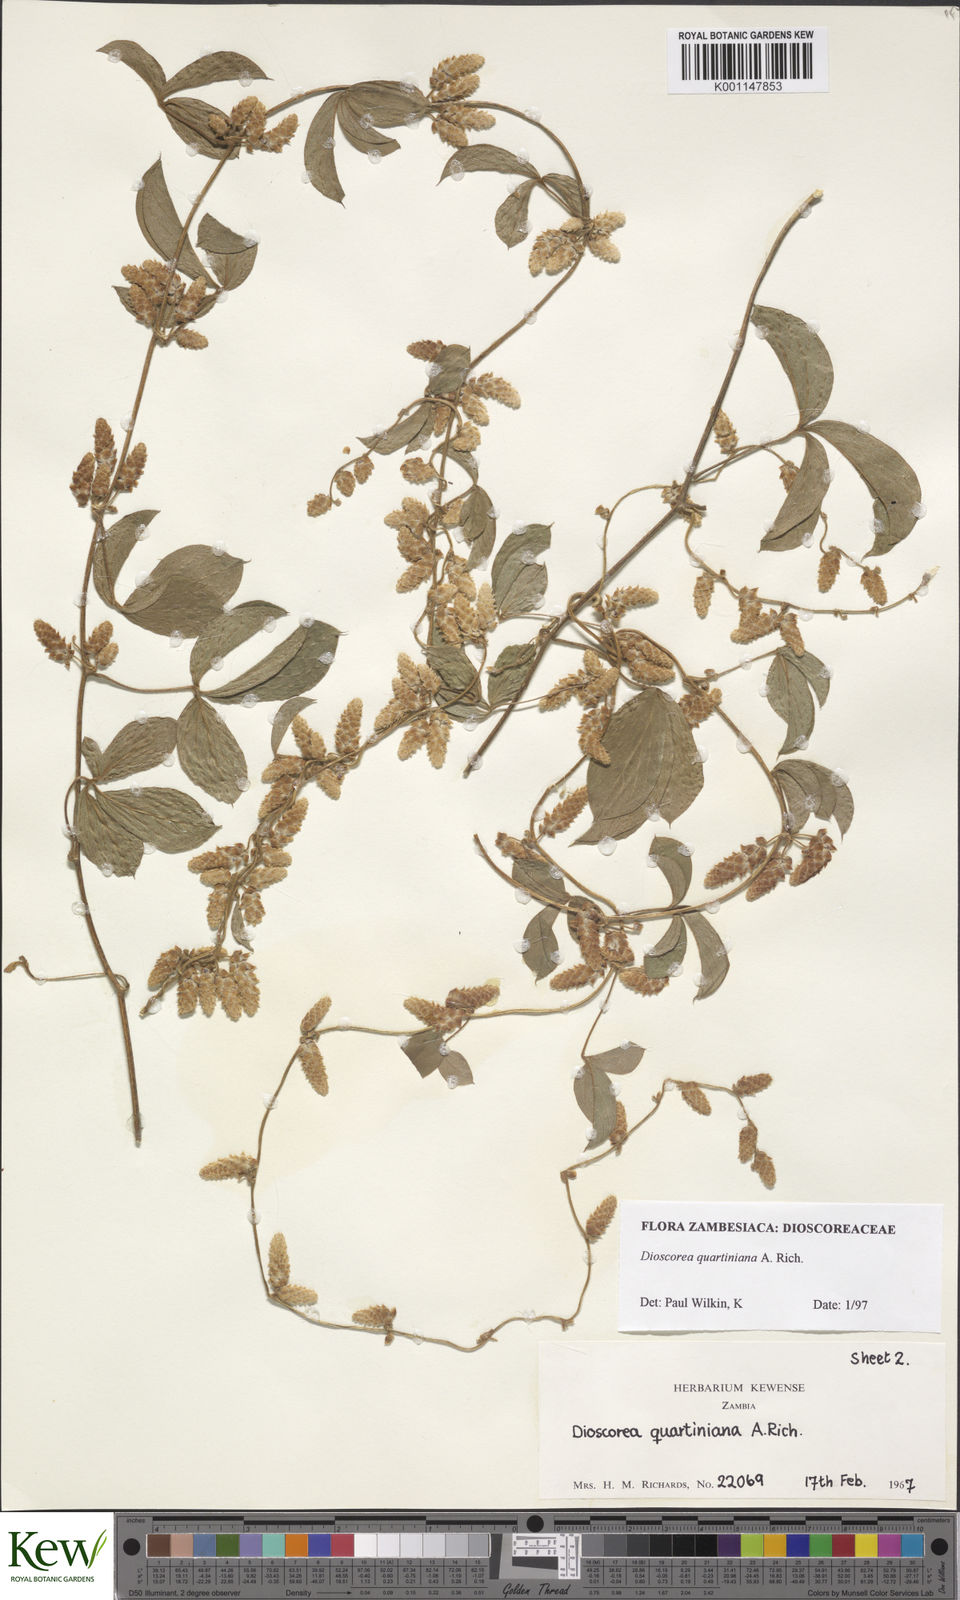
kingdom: Plantae
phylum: Tracheophyta
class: Liliopsida
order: Dioscoreales
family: Dioscoreaceae
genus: Dioscorea
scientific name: Dioscorea quartiniana
